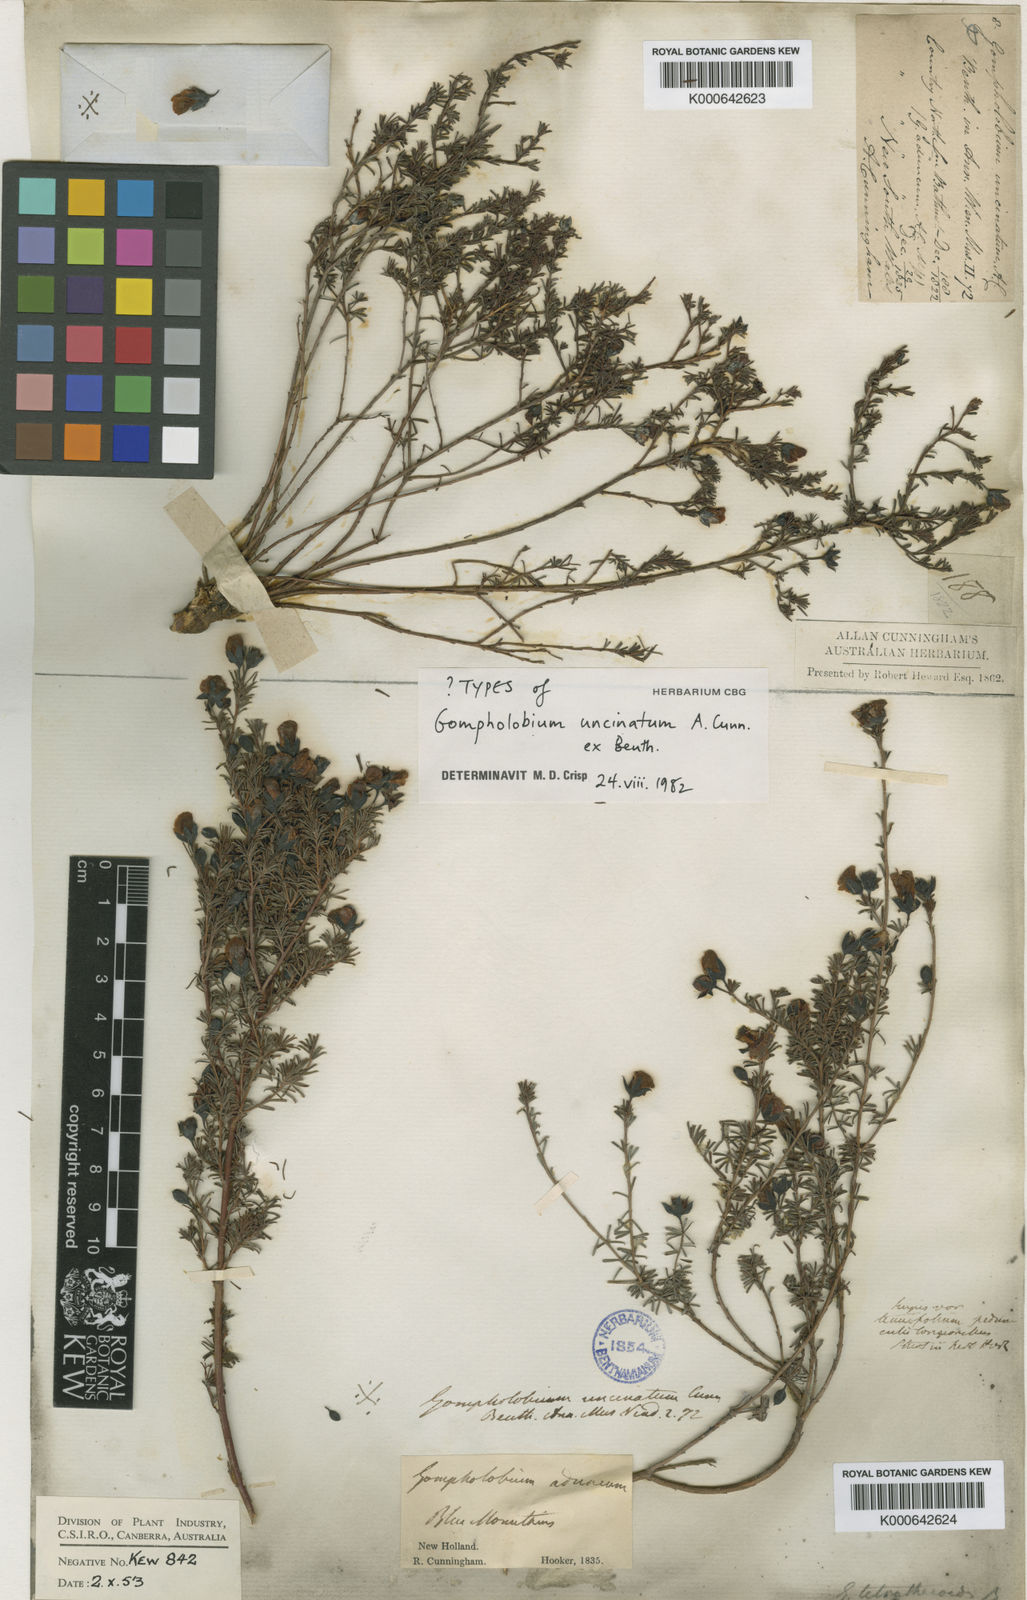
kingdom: Plantae
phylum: Tracheophyta
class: Magnoliopsida
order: Fabales
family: Fabaceae
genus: Gompholobium
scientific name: Gompholobium uncinatum
